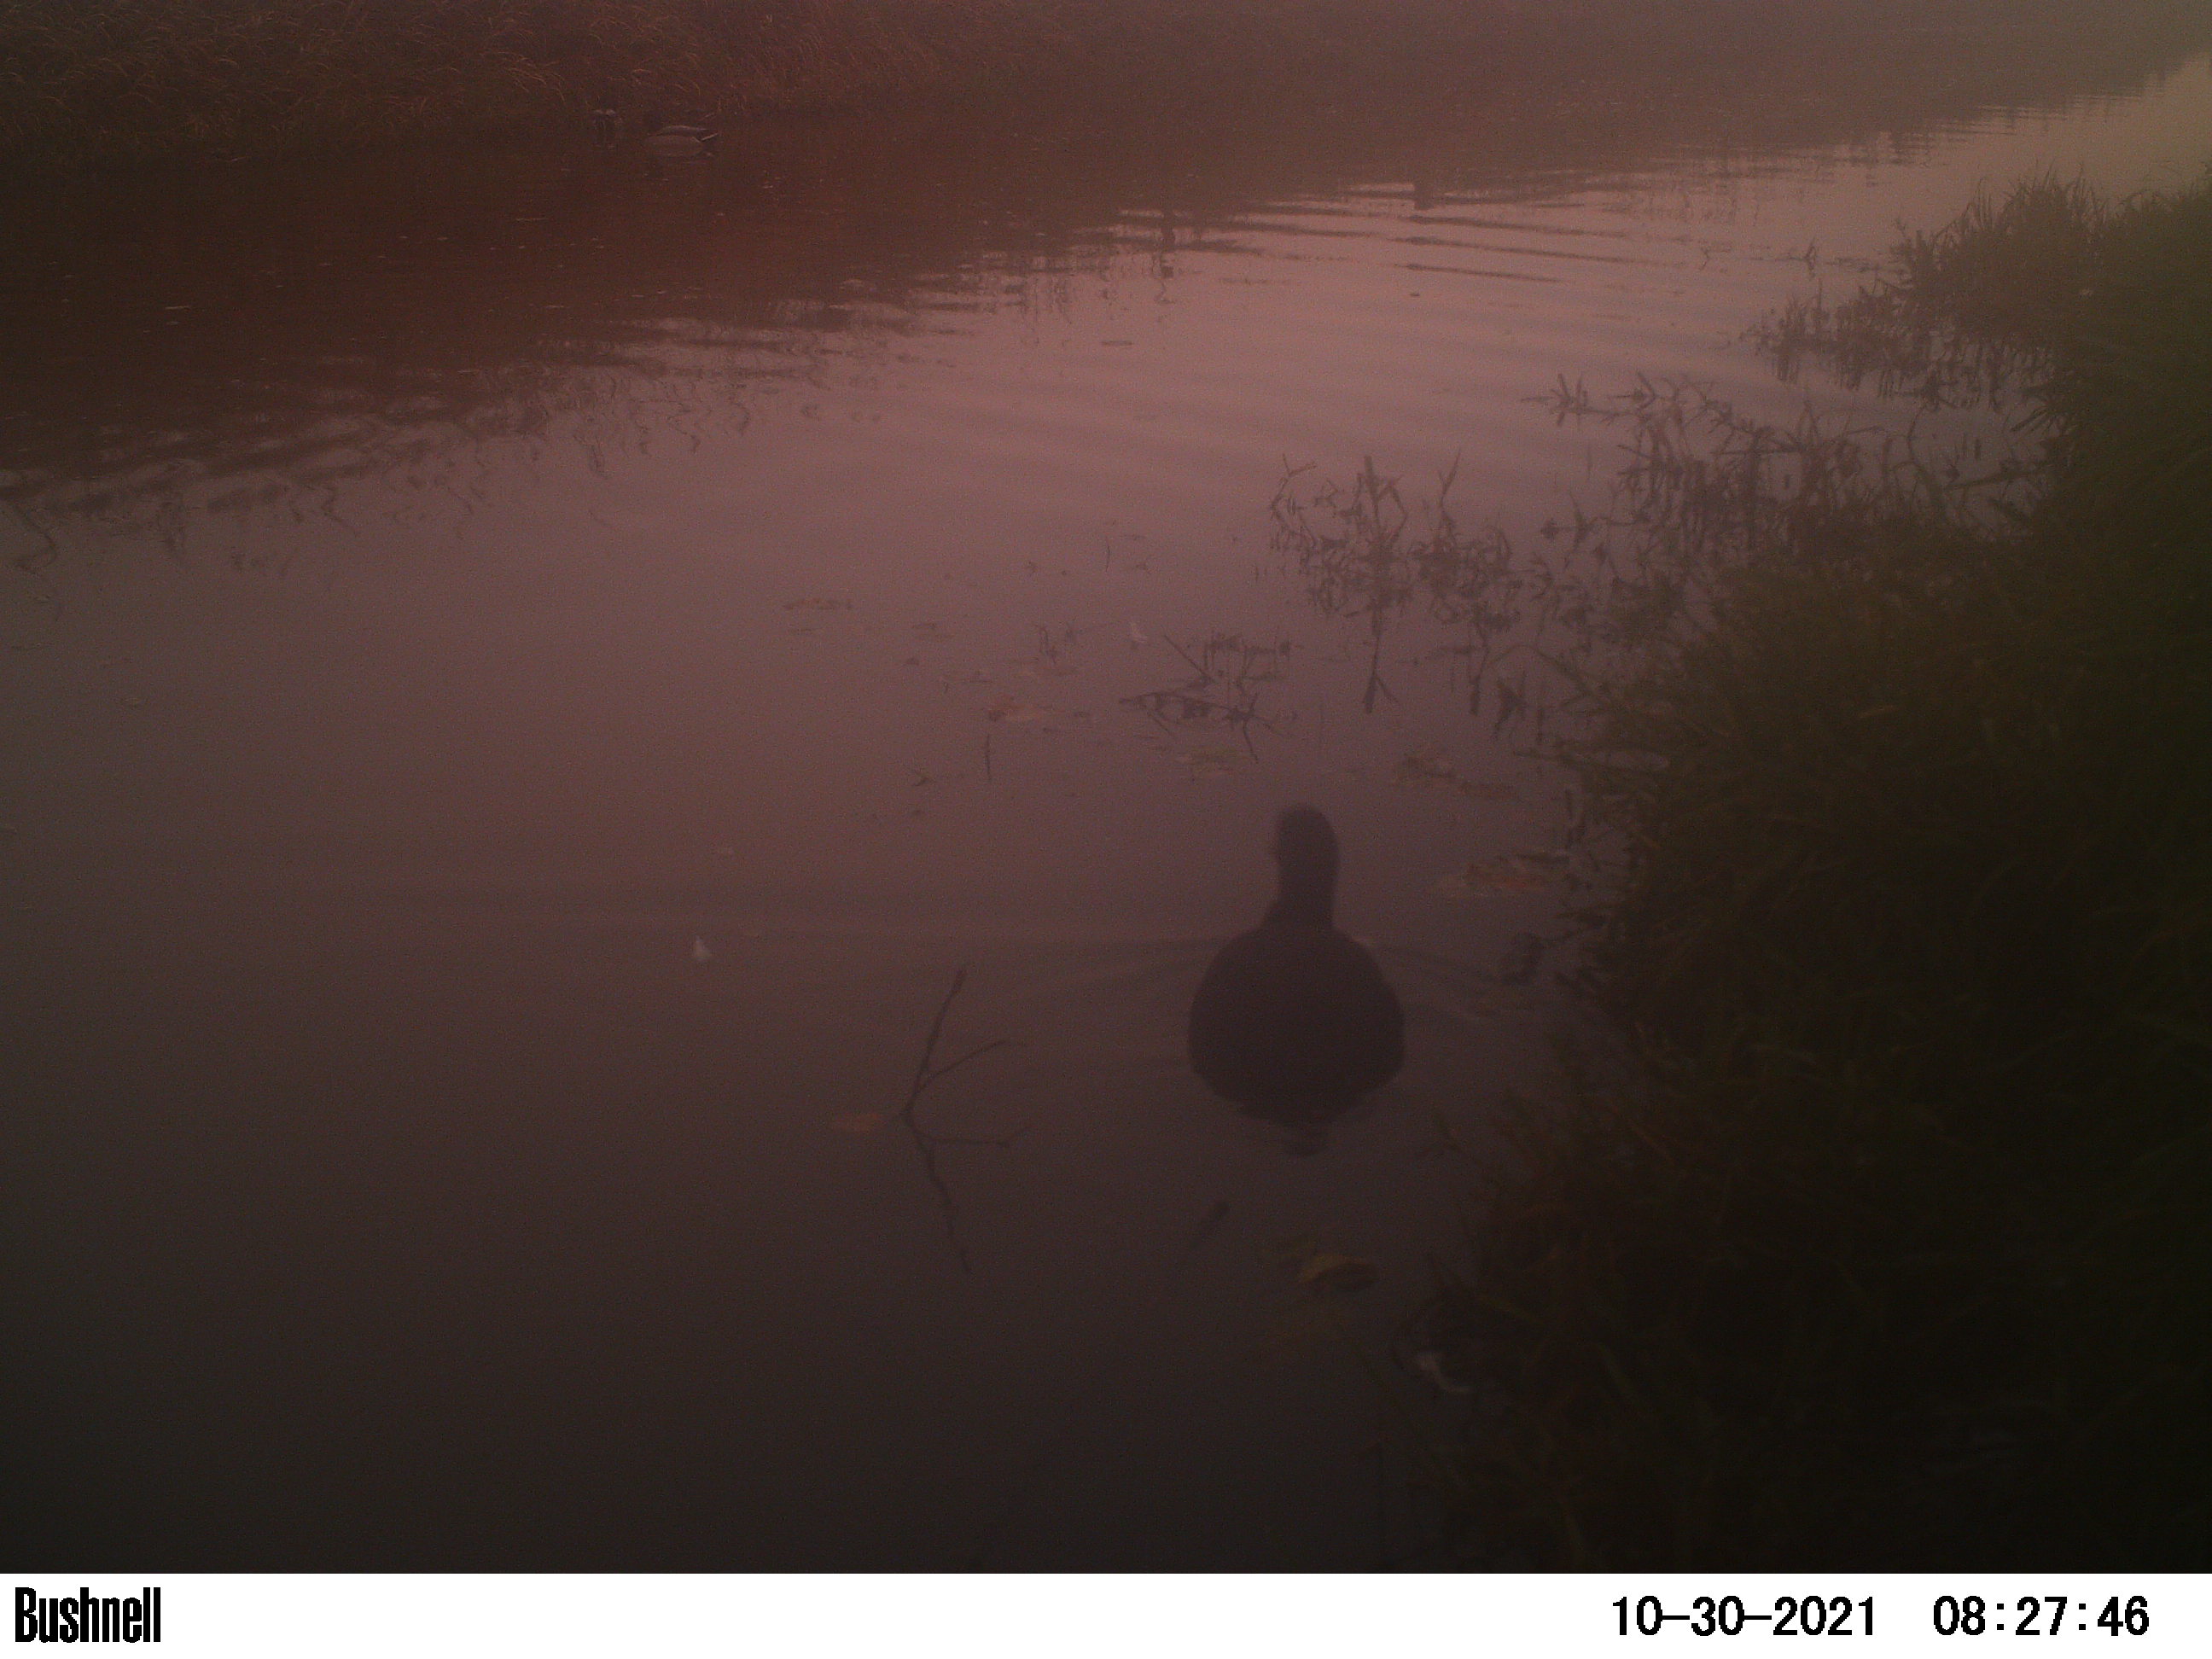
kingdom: Animalia
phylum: Chordata
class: Aves
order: Gruiformes
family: Rallidae
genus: Fulica
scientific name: Fulica atra
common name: Eurasian coot
